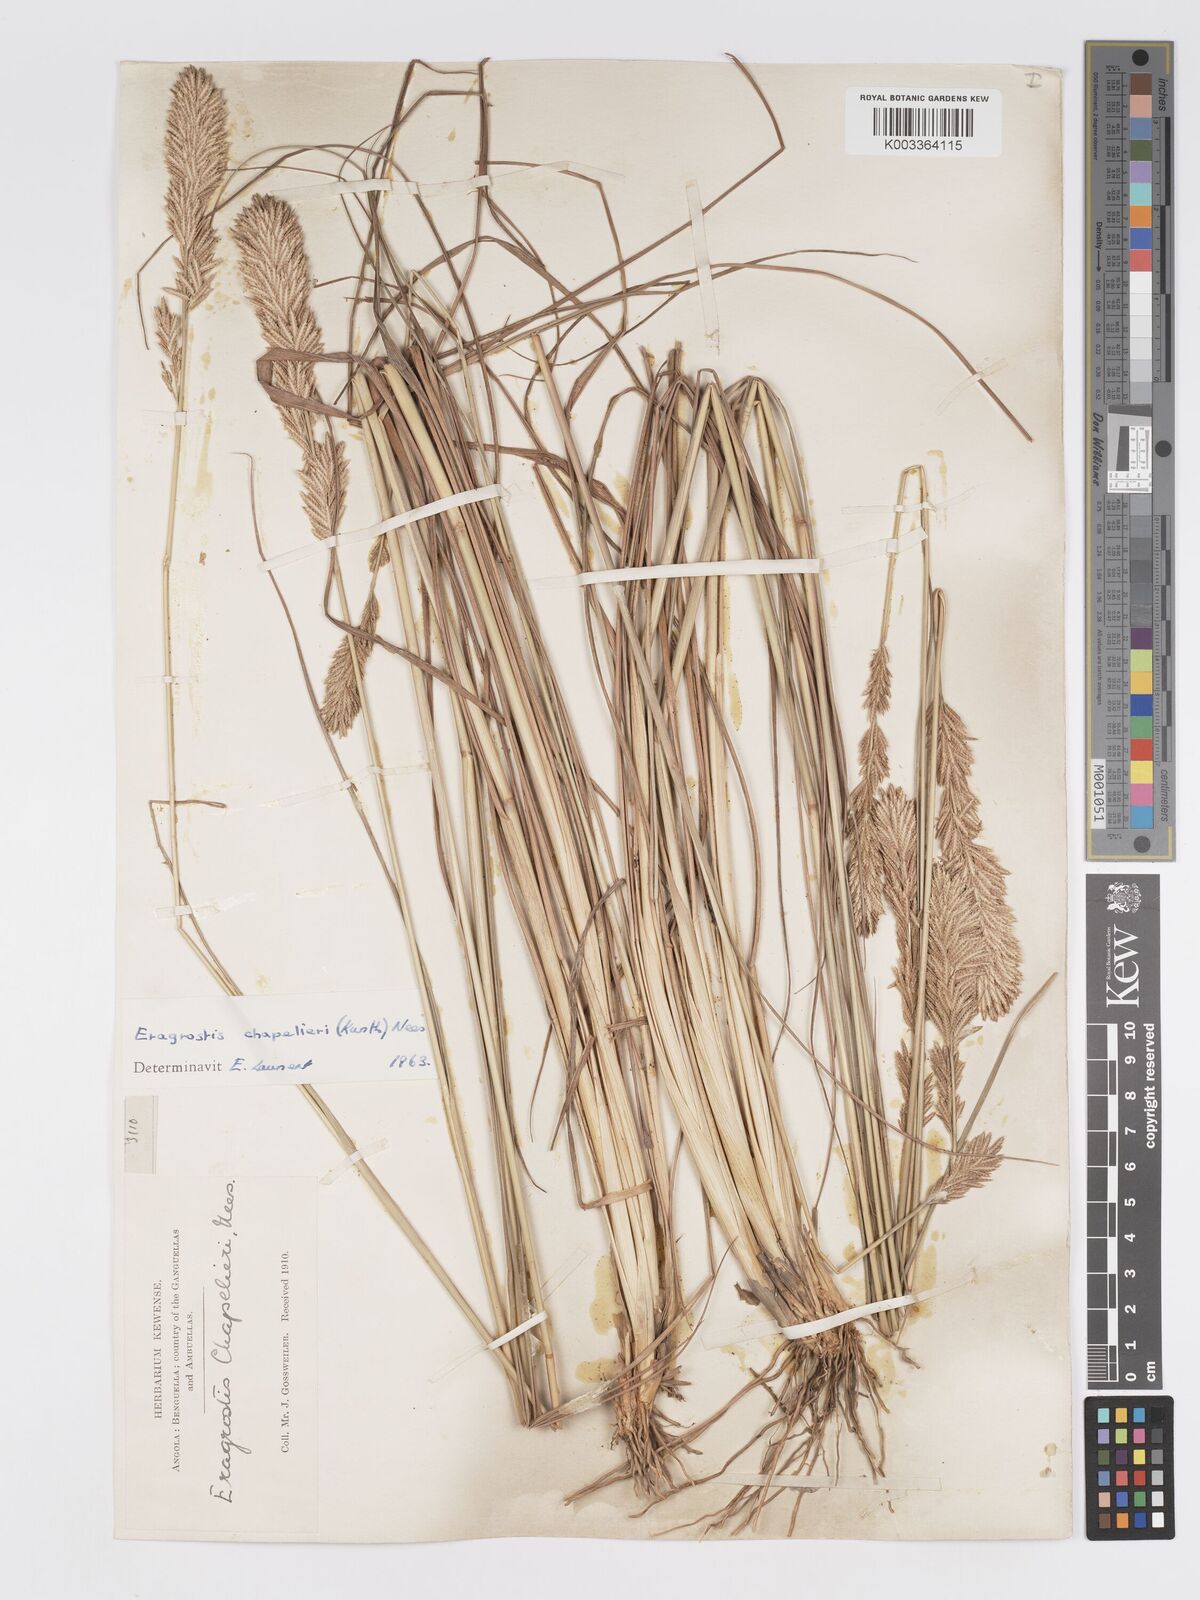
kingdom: Plantae
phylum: Tracheophyta
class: Liliopsida
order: Poales
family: Poaceae
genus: Eragrostis
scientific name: Eragrostis chapelieri
